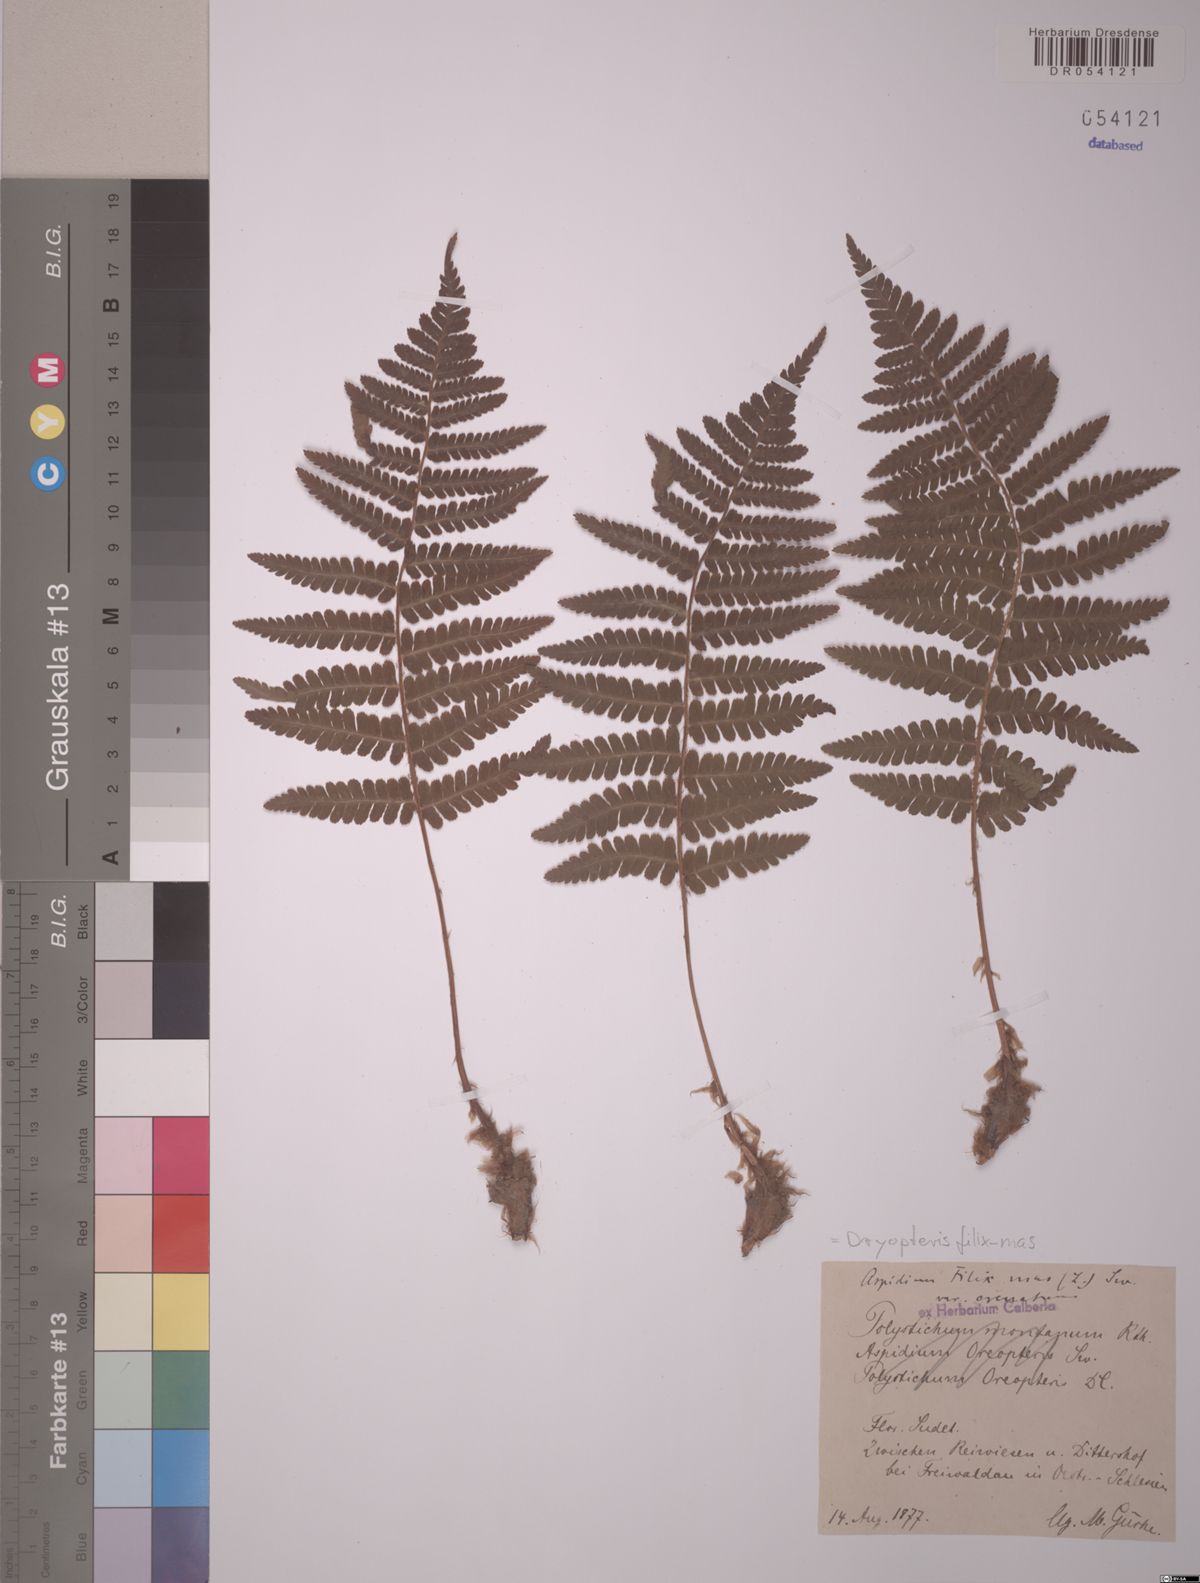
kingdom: Plantae
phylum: Tracheophyta
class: Polypodiopsida
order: Polypodiales
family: Dryopteridaceae
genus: Dryopteris
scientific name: Dryopteris filix-mas
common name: Male fern
